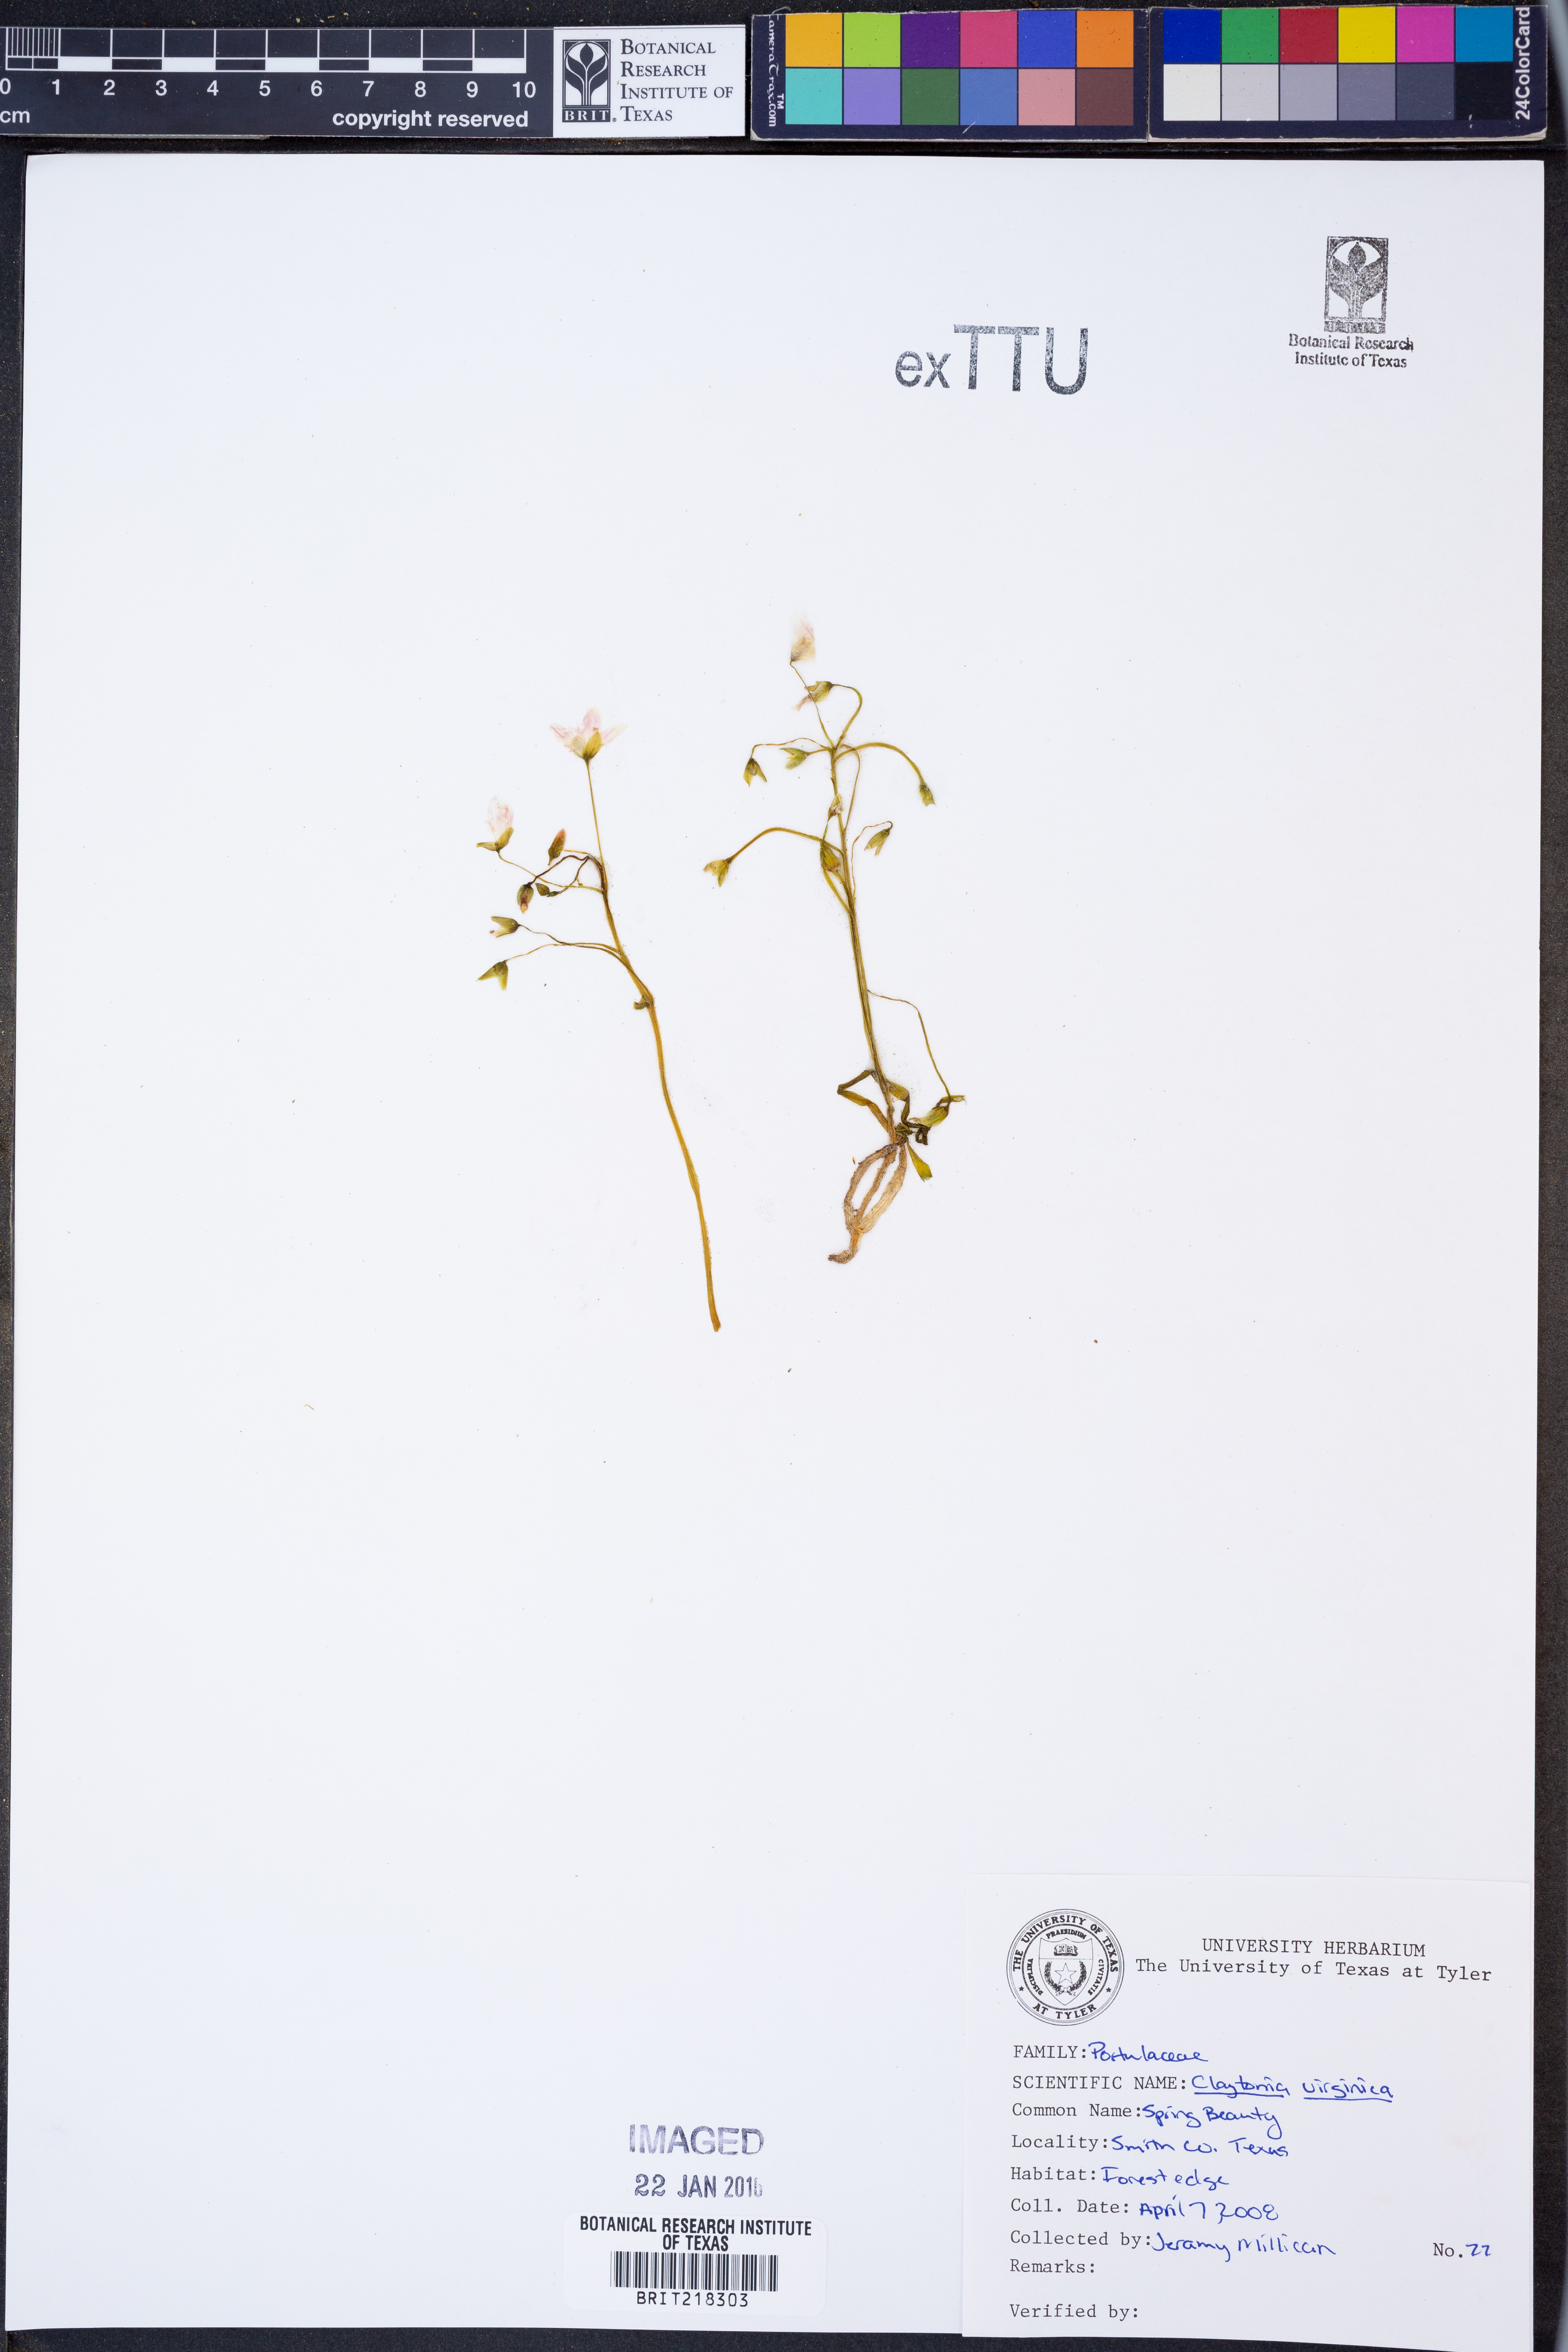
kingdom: Plantae
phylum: Tracheophyta
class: Magnoliopsida
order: Caryophyllales
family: Montiaceae
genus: Claytonia
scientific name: Claytonia virginica
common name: Virginia springbeauty
